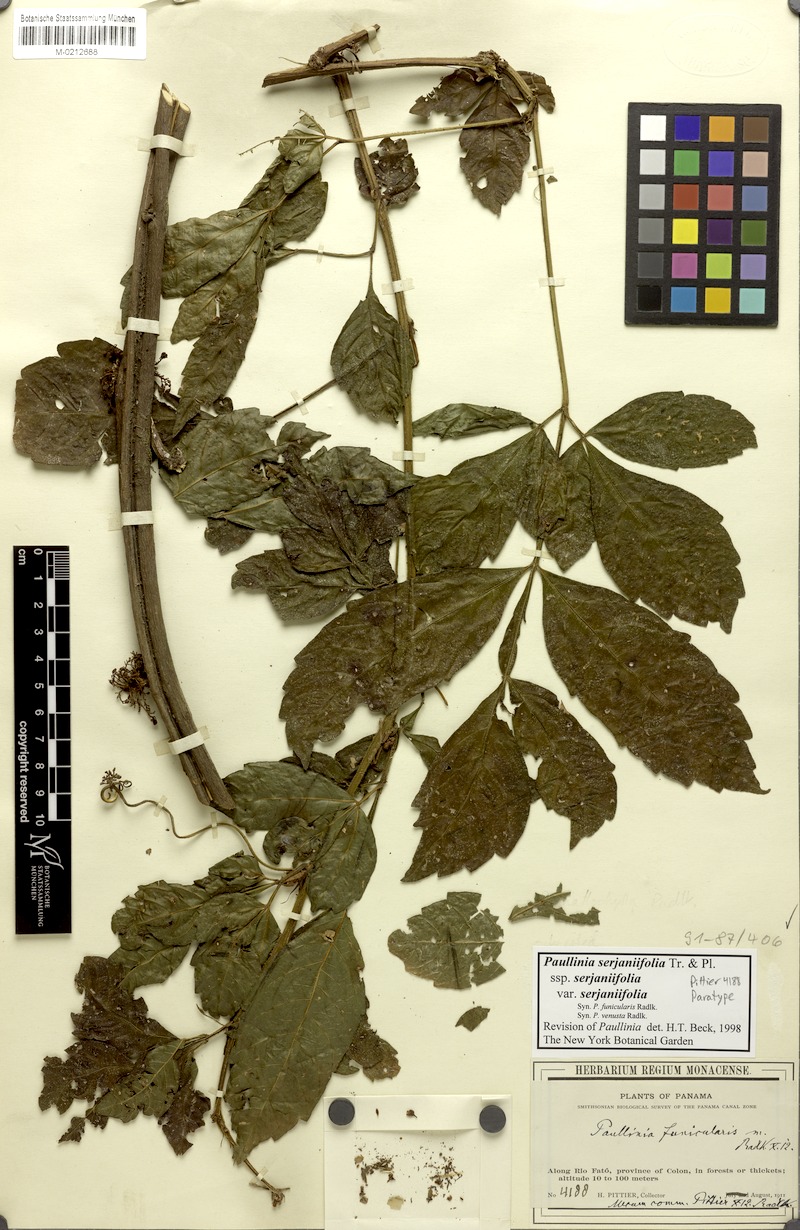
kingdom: Plantae
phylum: Tracheophyta
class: Magnoliopsida
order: Sapindales
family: Sapindaceae
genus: Paullinia
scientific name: Paullinia serjaniifolia
